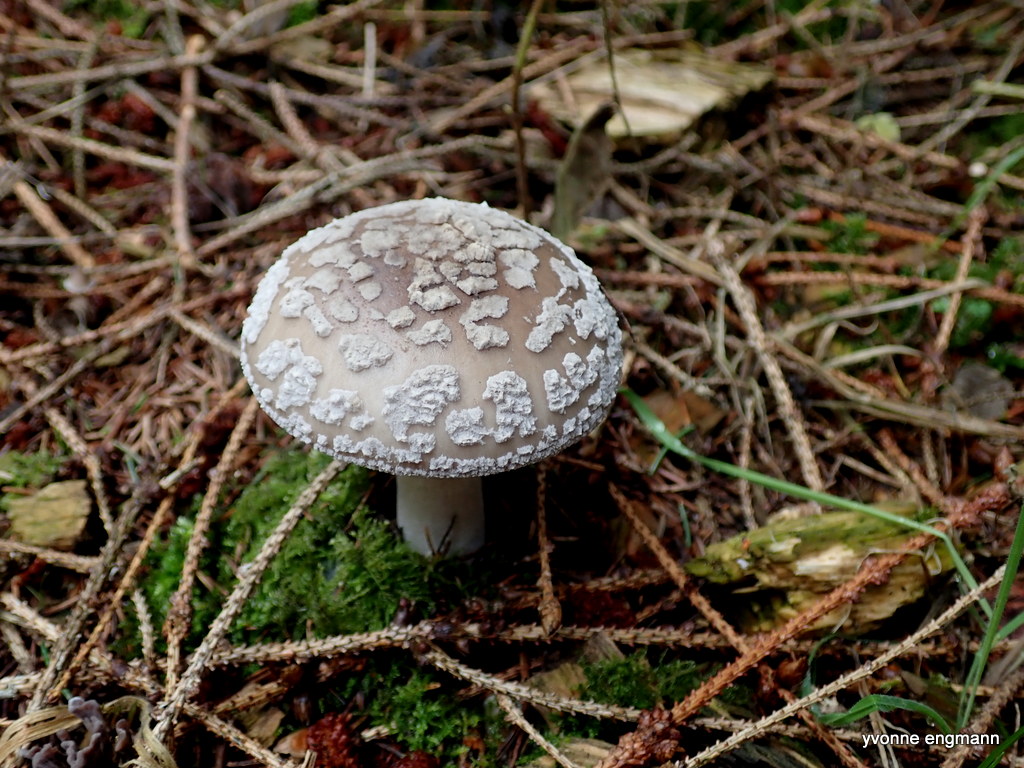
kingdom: Fungi
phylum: Basidiomycota
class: Agaricomycetes
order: Agaricales
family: Amanitaceae
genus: Amanita
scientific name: Amanita
